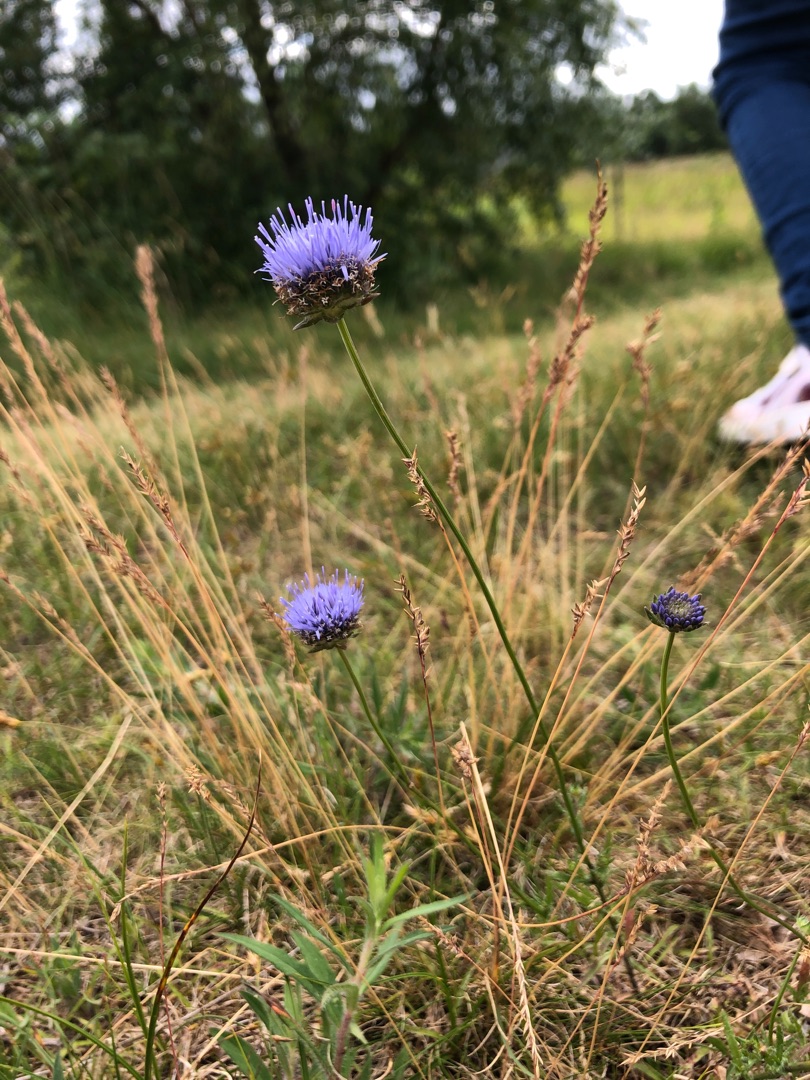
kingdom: Plantae
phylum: Tracheophyta
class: Magnoliopsida
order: Asterales
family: Campanulaceae
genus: Jasione
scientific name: Jasione montana
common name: Blåmunke
